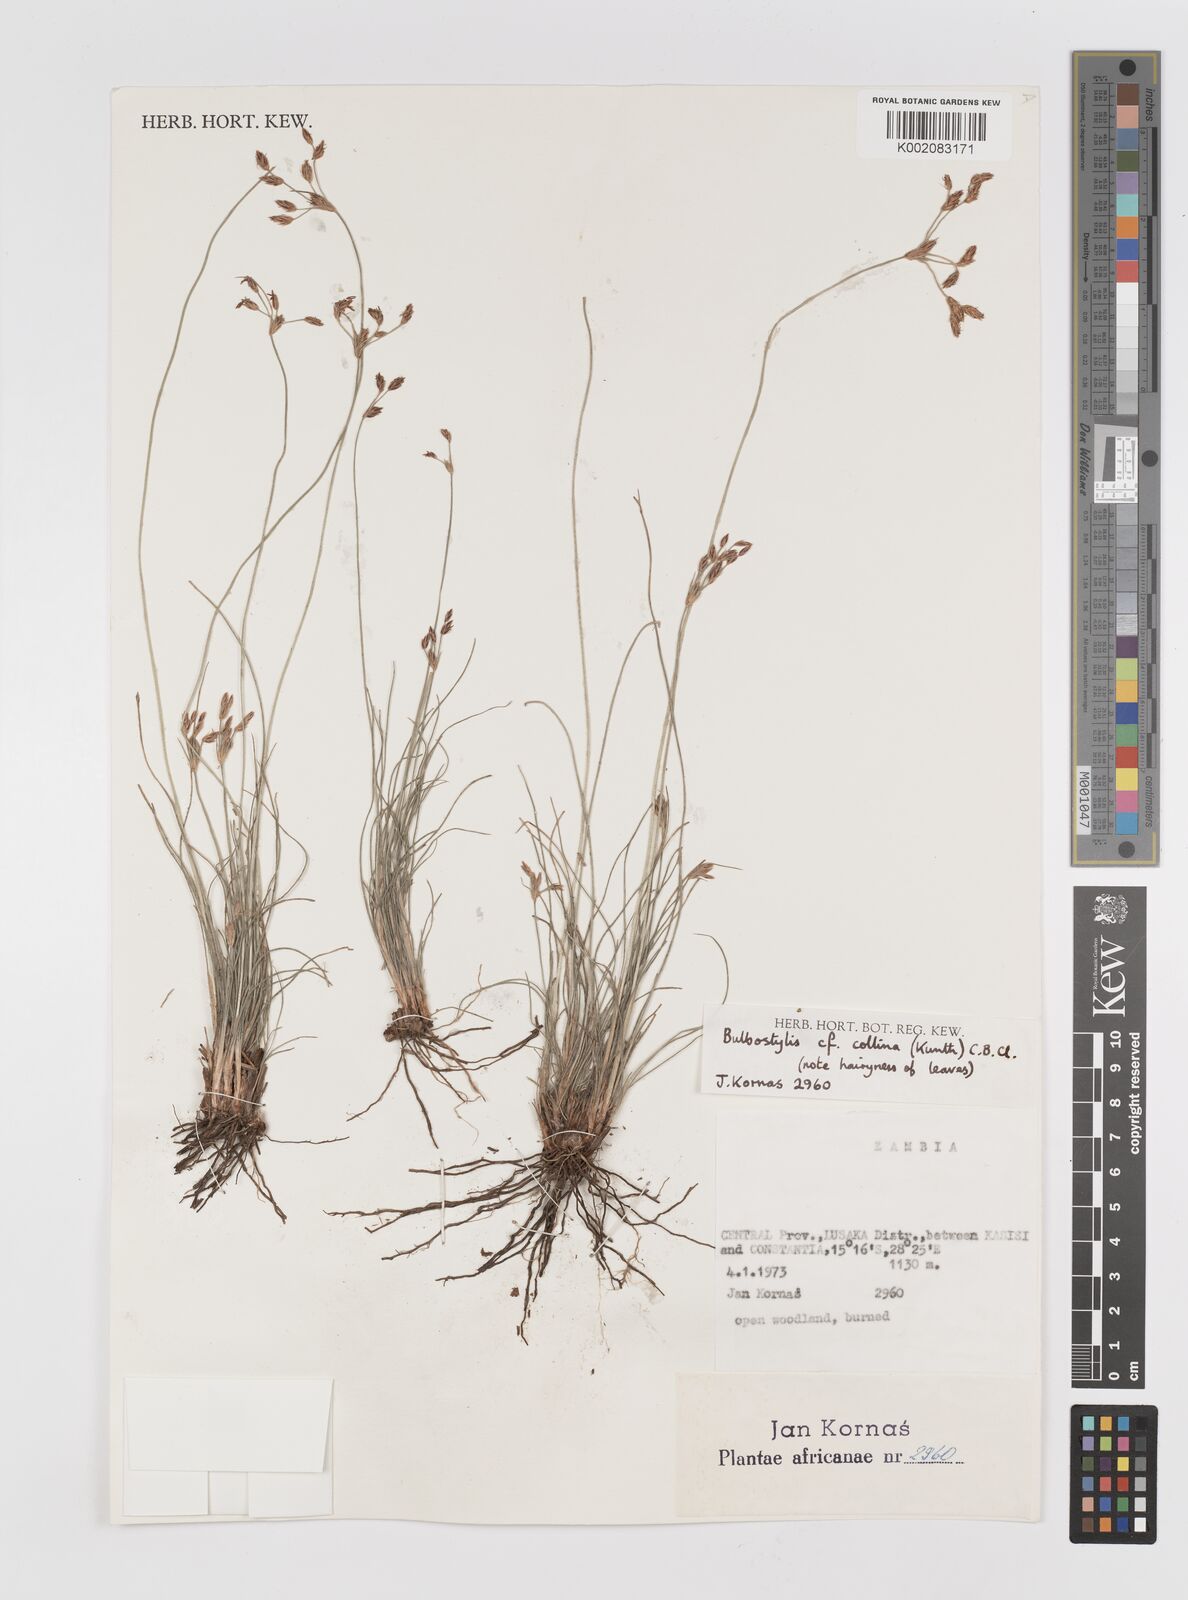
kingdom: Plantae
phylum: Tracheophyta
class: Liliopsida
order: Poales
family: Cyperaceae
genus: Bulbostylis
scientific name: Bulbostylis contexta
